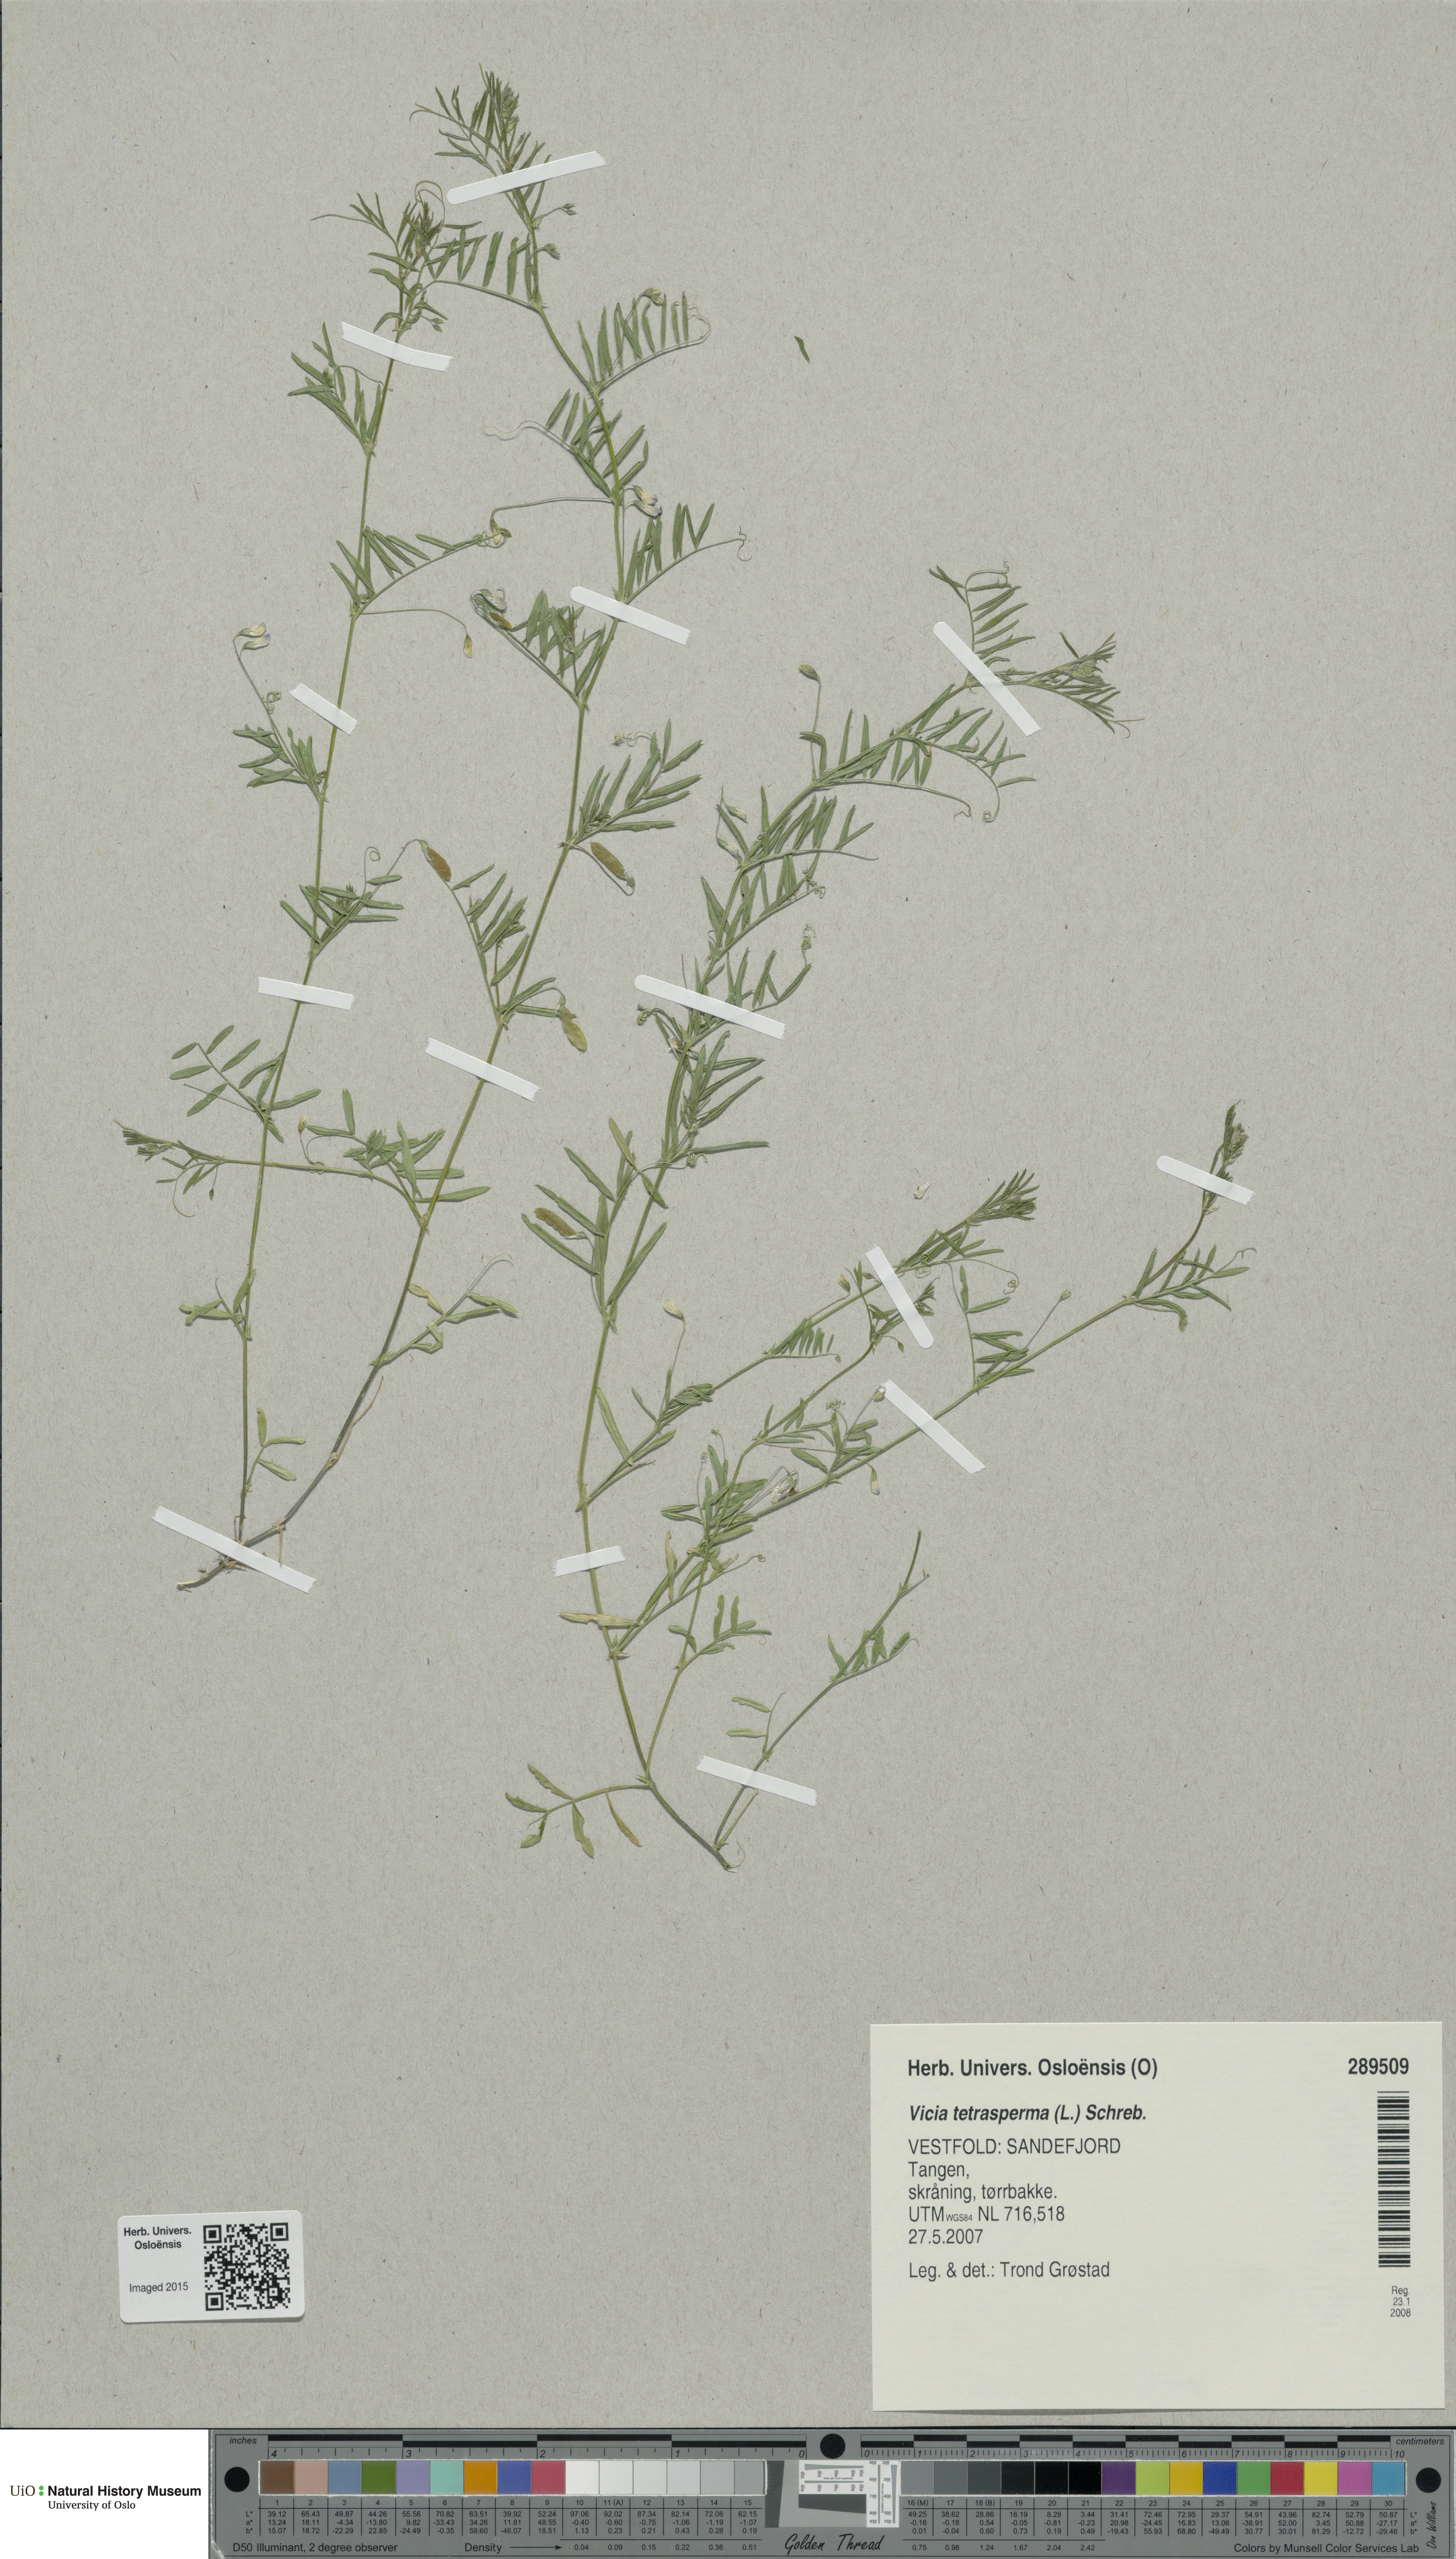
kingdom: Plantae
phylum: Tracheophyta
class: Magnoliopsida
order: Fabales
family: Fabaceae
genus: Vicia
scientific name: Vicia tetrasperma
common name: Smooth tare
